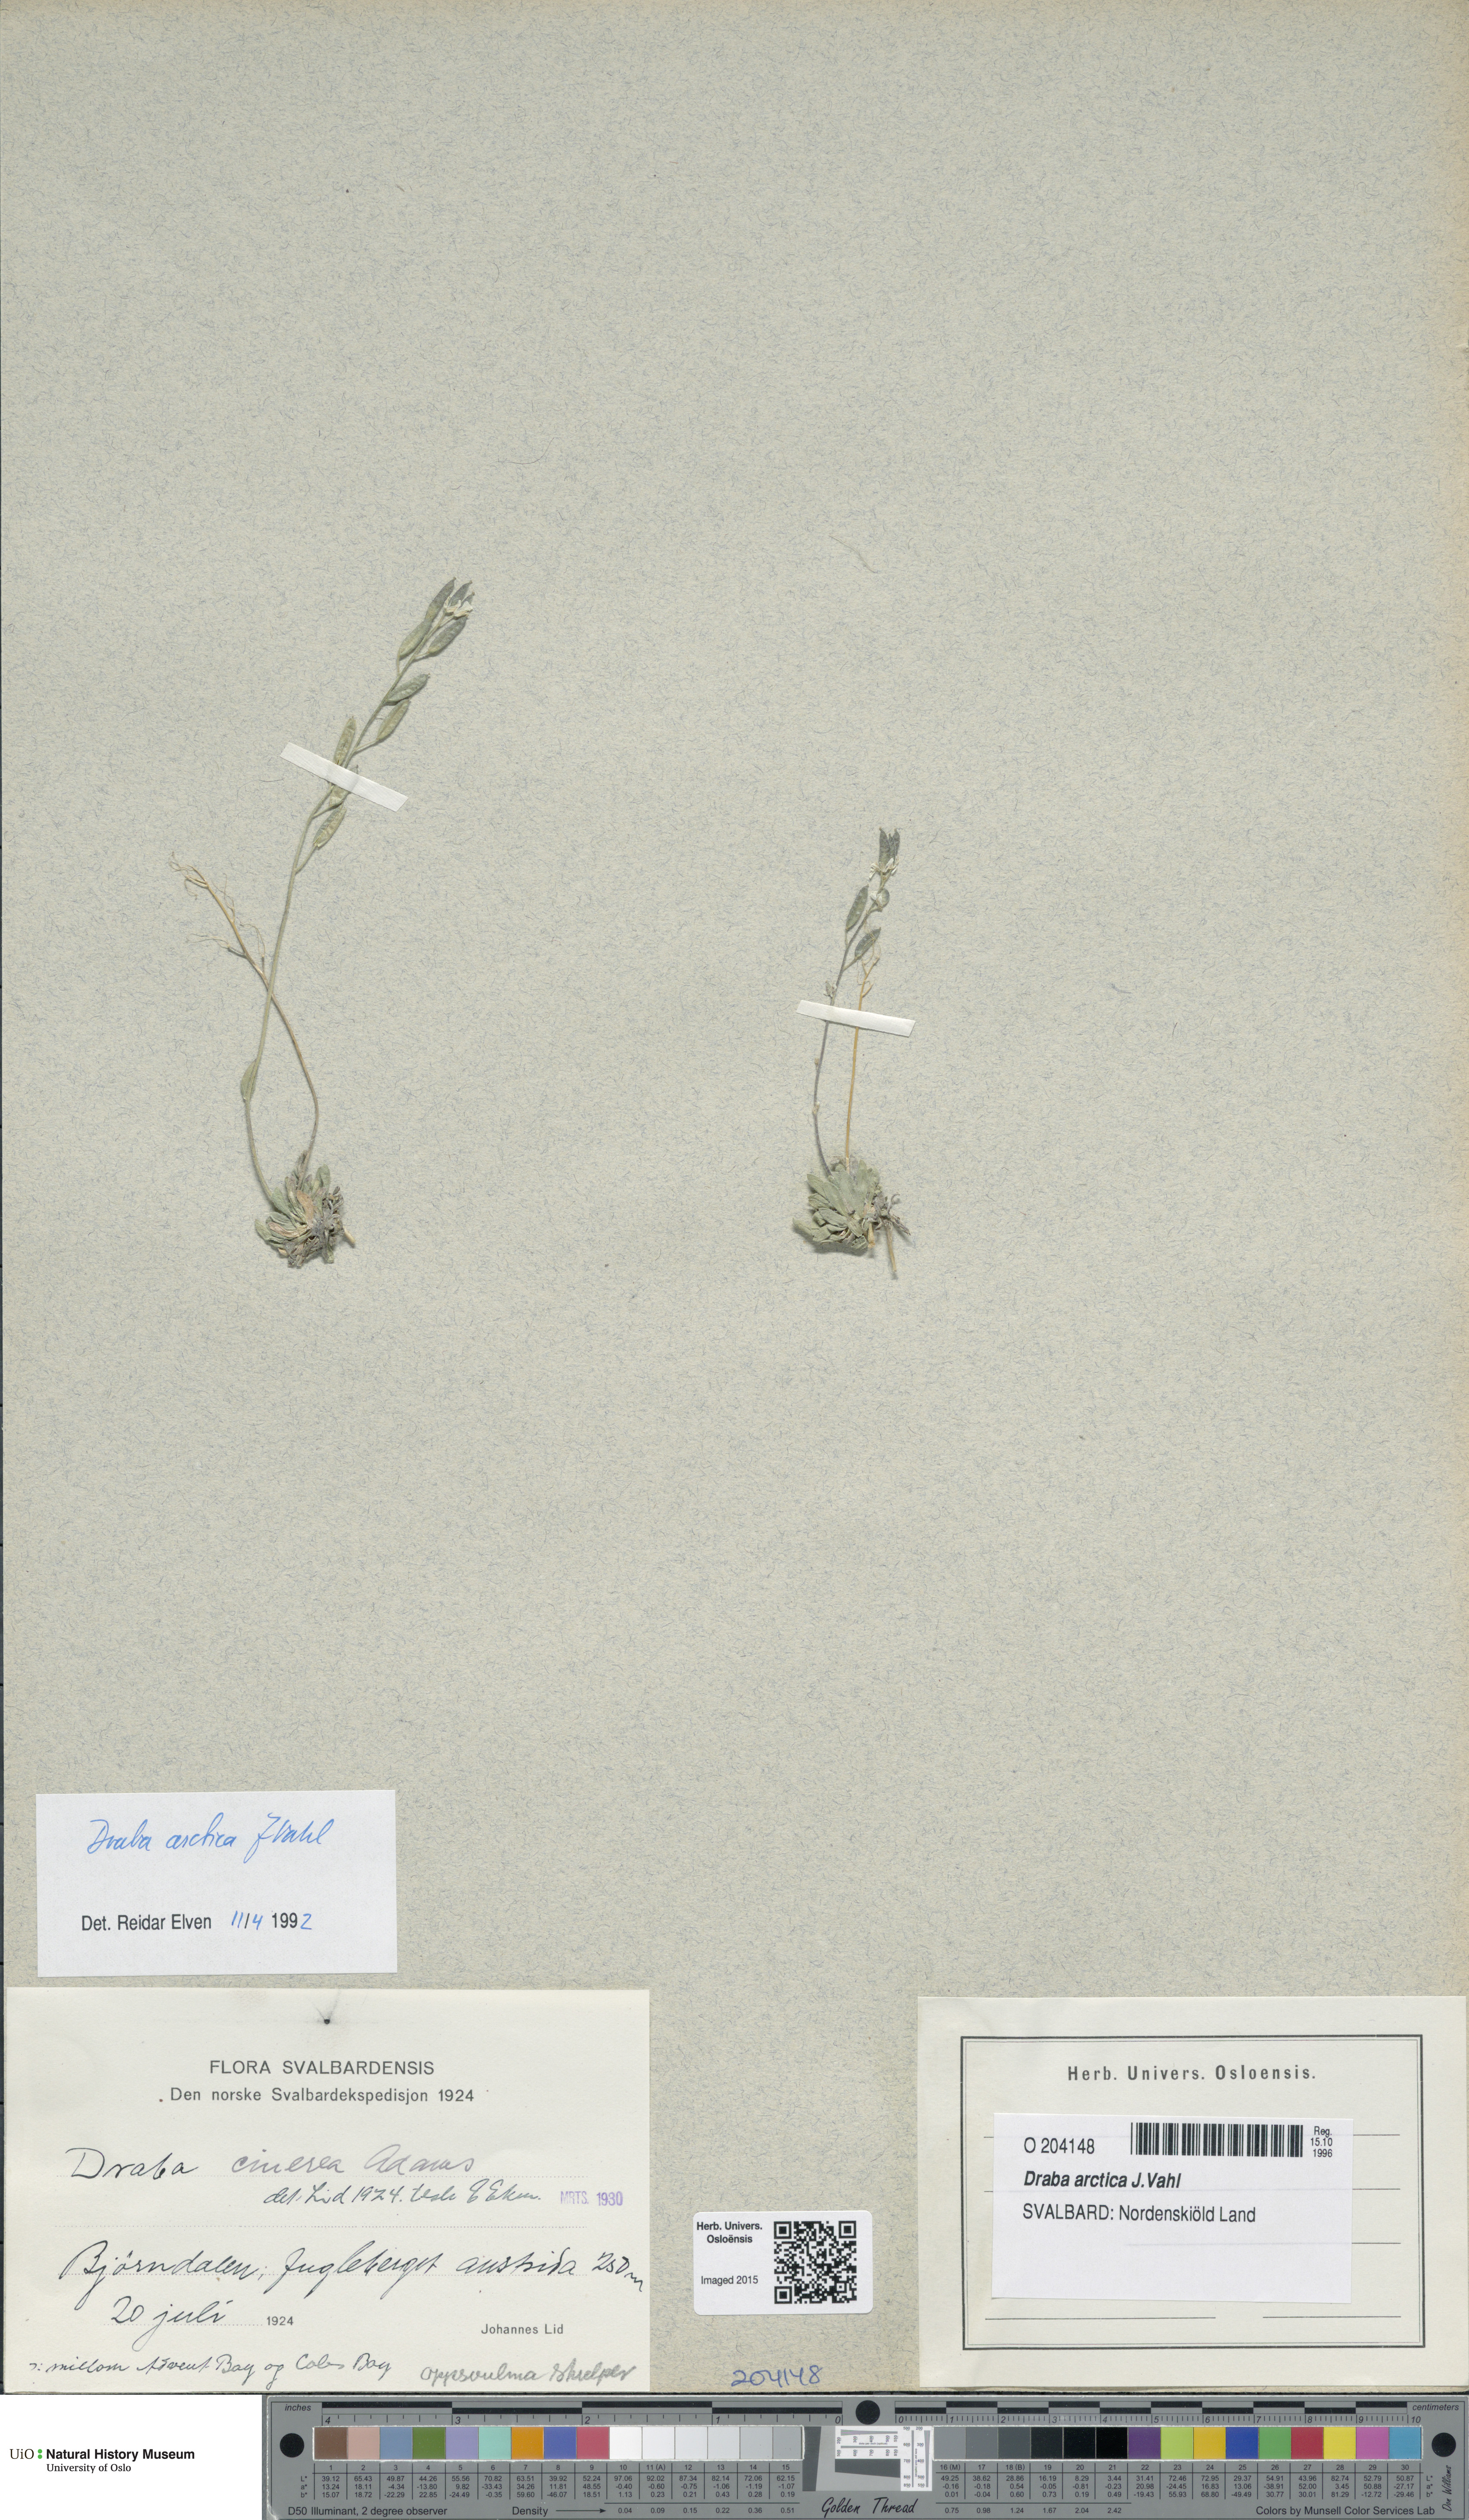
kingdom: Plantae
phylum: Tracheophyta
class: Magnoliopsida
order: Brassicales
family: Brassicaceae
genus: Draba
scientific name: Draba arctica
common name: Arctic draba
